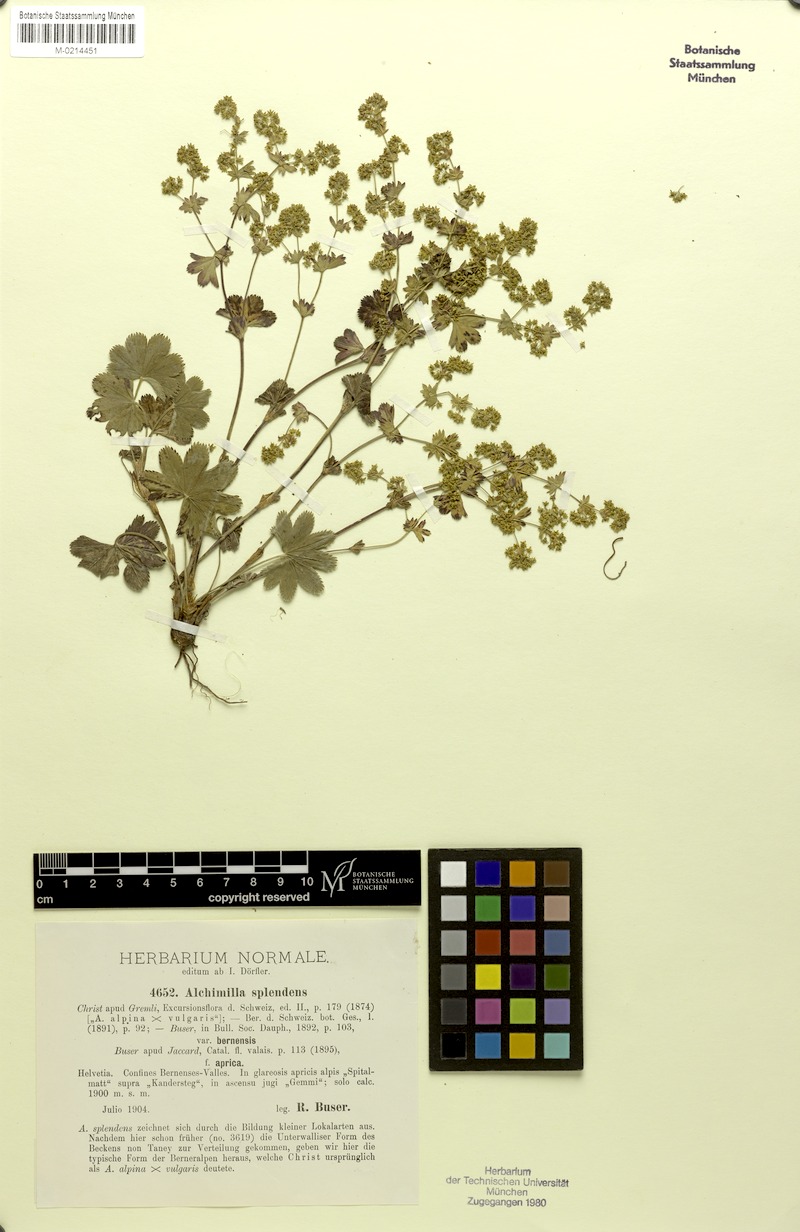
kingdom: Plantae
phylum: Tracheophyta
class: Magnoliopsida
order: Rosales
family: Rosaceae
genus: Alchemilla
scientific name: Alchemilla splendens
